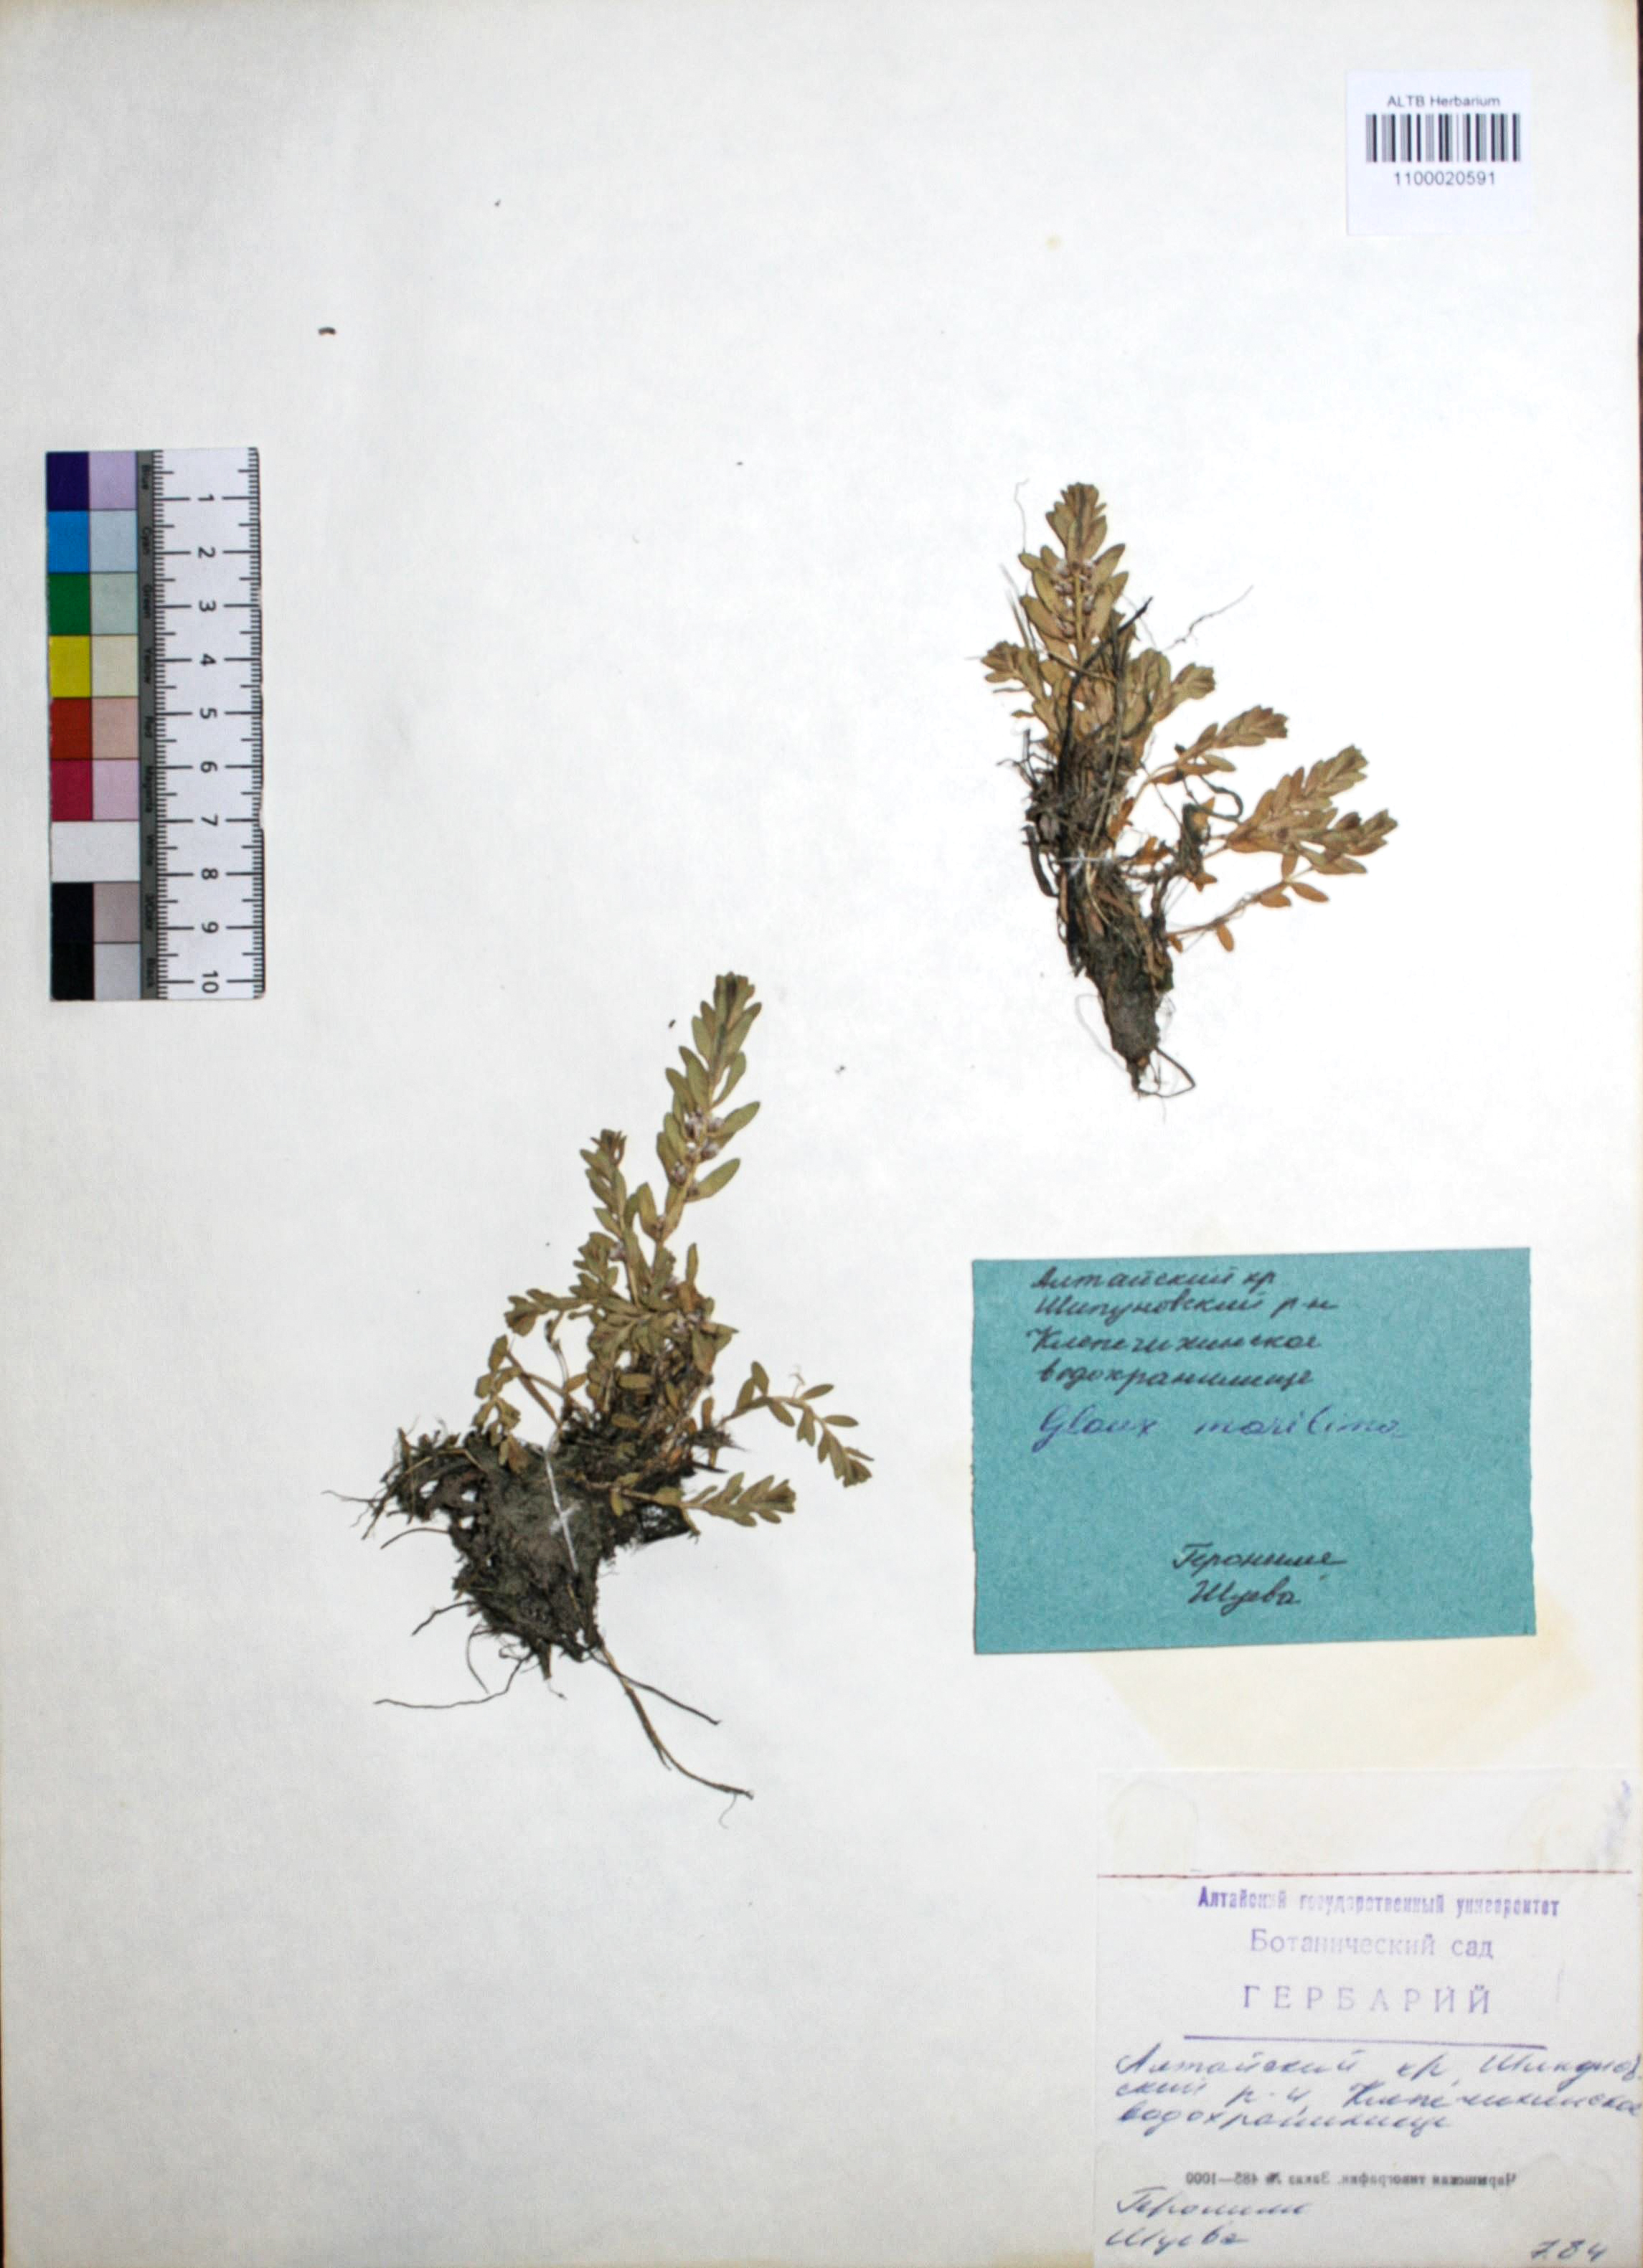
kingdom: Plantae
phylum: Tracheophyta
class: Magnoliopsida
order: Ericales
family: Primulaceae
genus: Lysimachia
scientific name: Lysimachia maritima
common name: Sea milkwort
